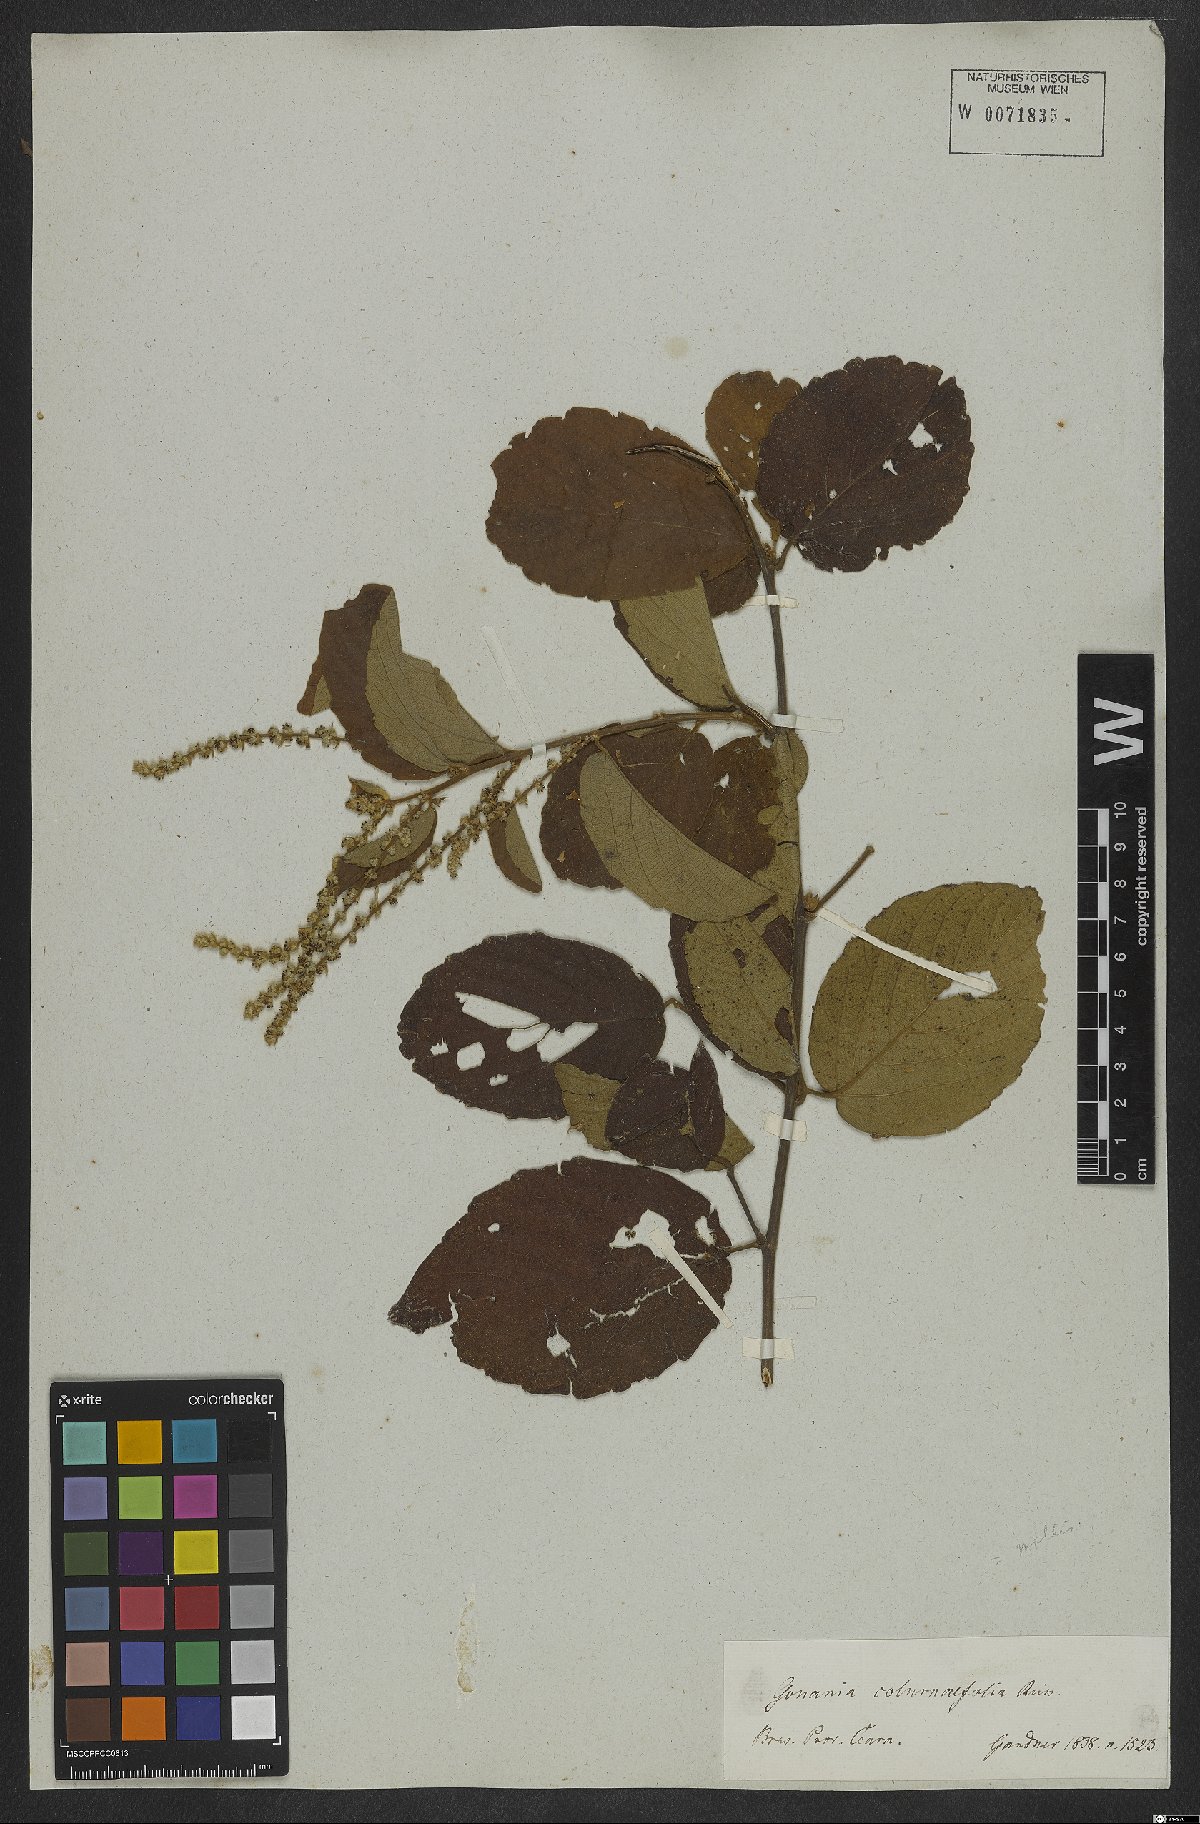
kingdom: Plantae
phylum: Tracheophyta
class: Magnoliopsida
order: Rosales
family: Rhamnaceae
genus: Gouania
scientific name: Gouania velutina
